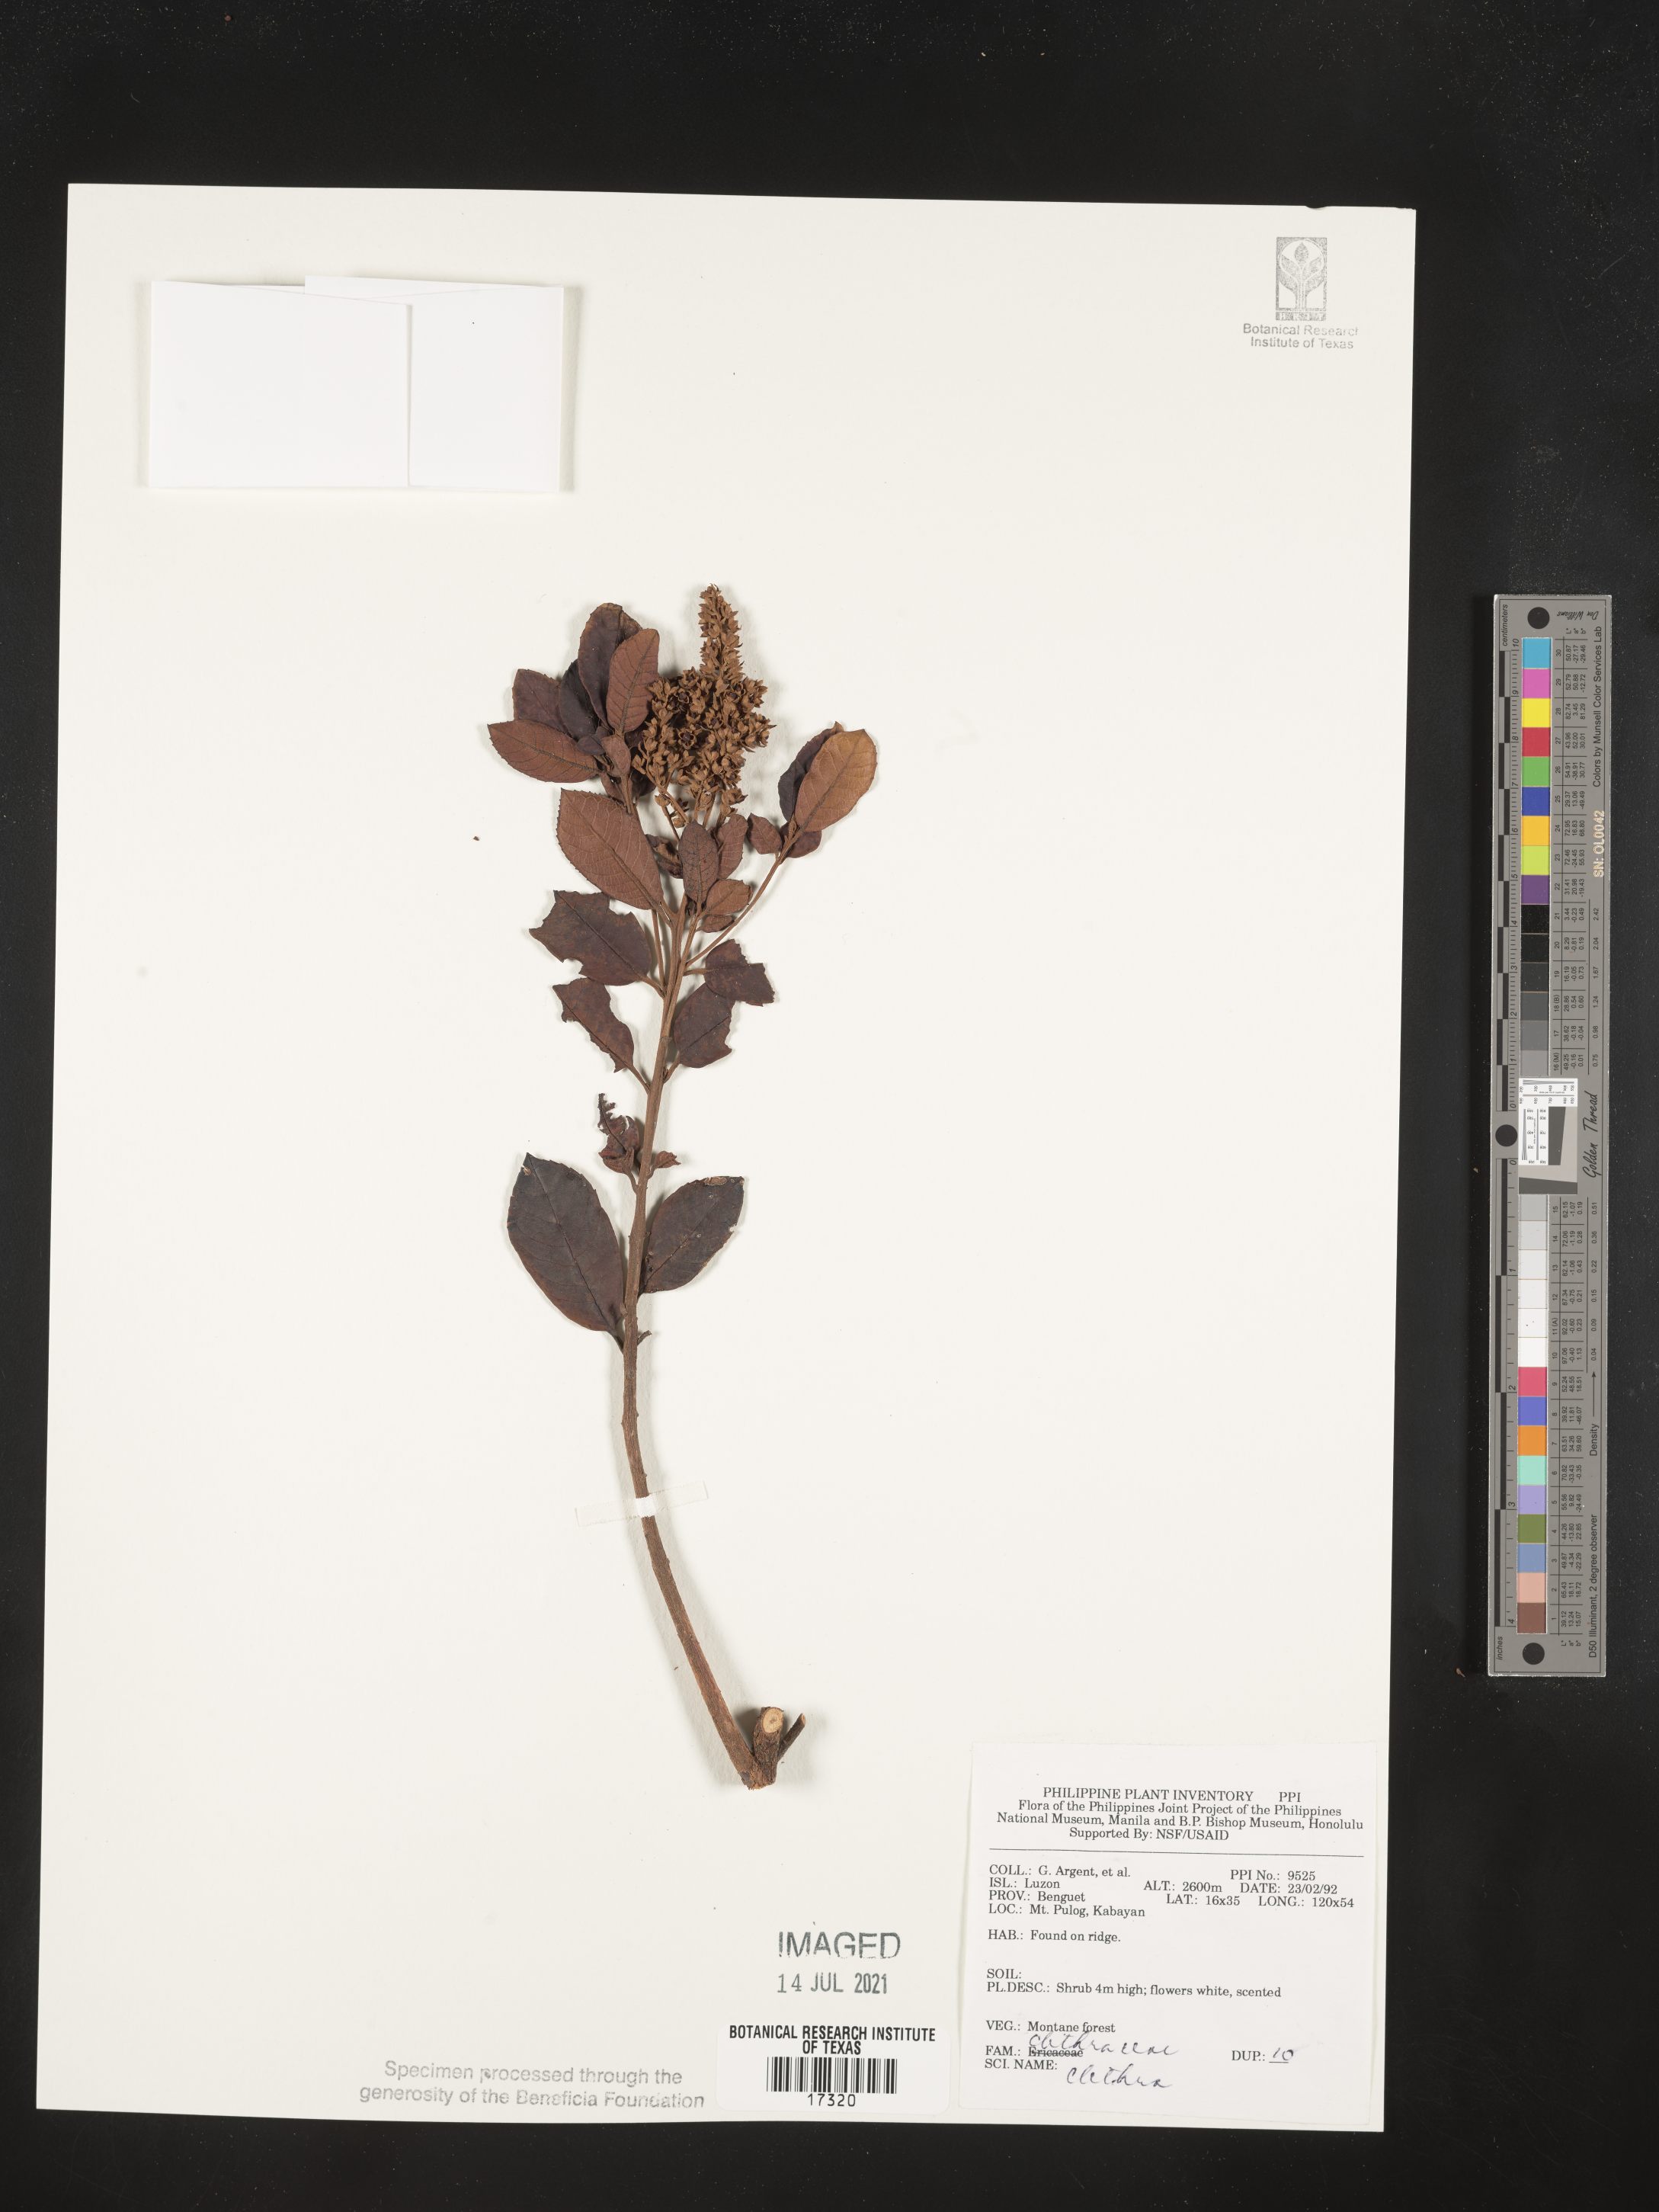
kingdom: Plantae
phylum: Tracheophyta
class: Magnoliopsida
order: Ericales
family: Clethraceae
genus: Clethra
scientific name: Clethra
